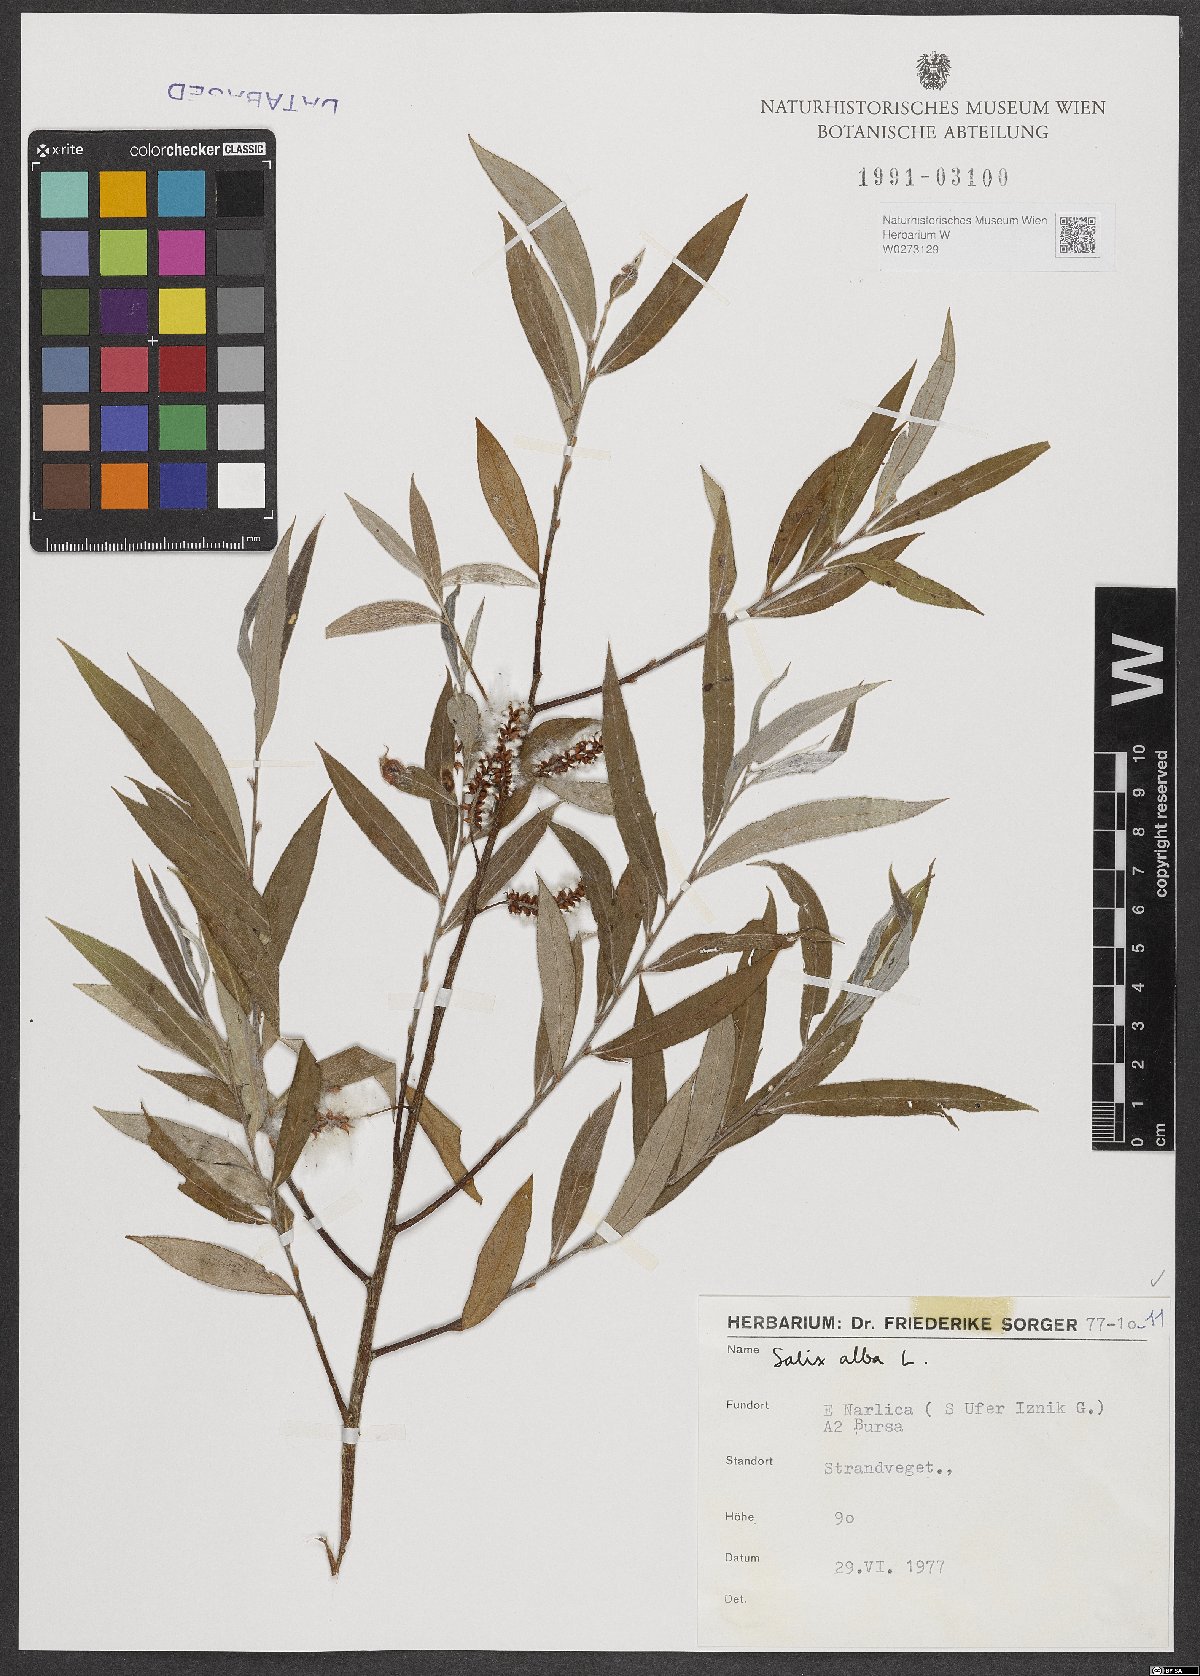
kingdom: Plantae
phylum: Tracheophyta
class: Magnoliopsida
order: Malpighiales
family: Salicaceae
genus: Salix
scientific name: Salix alba
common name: White willow
